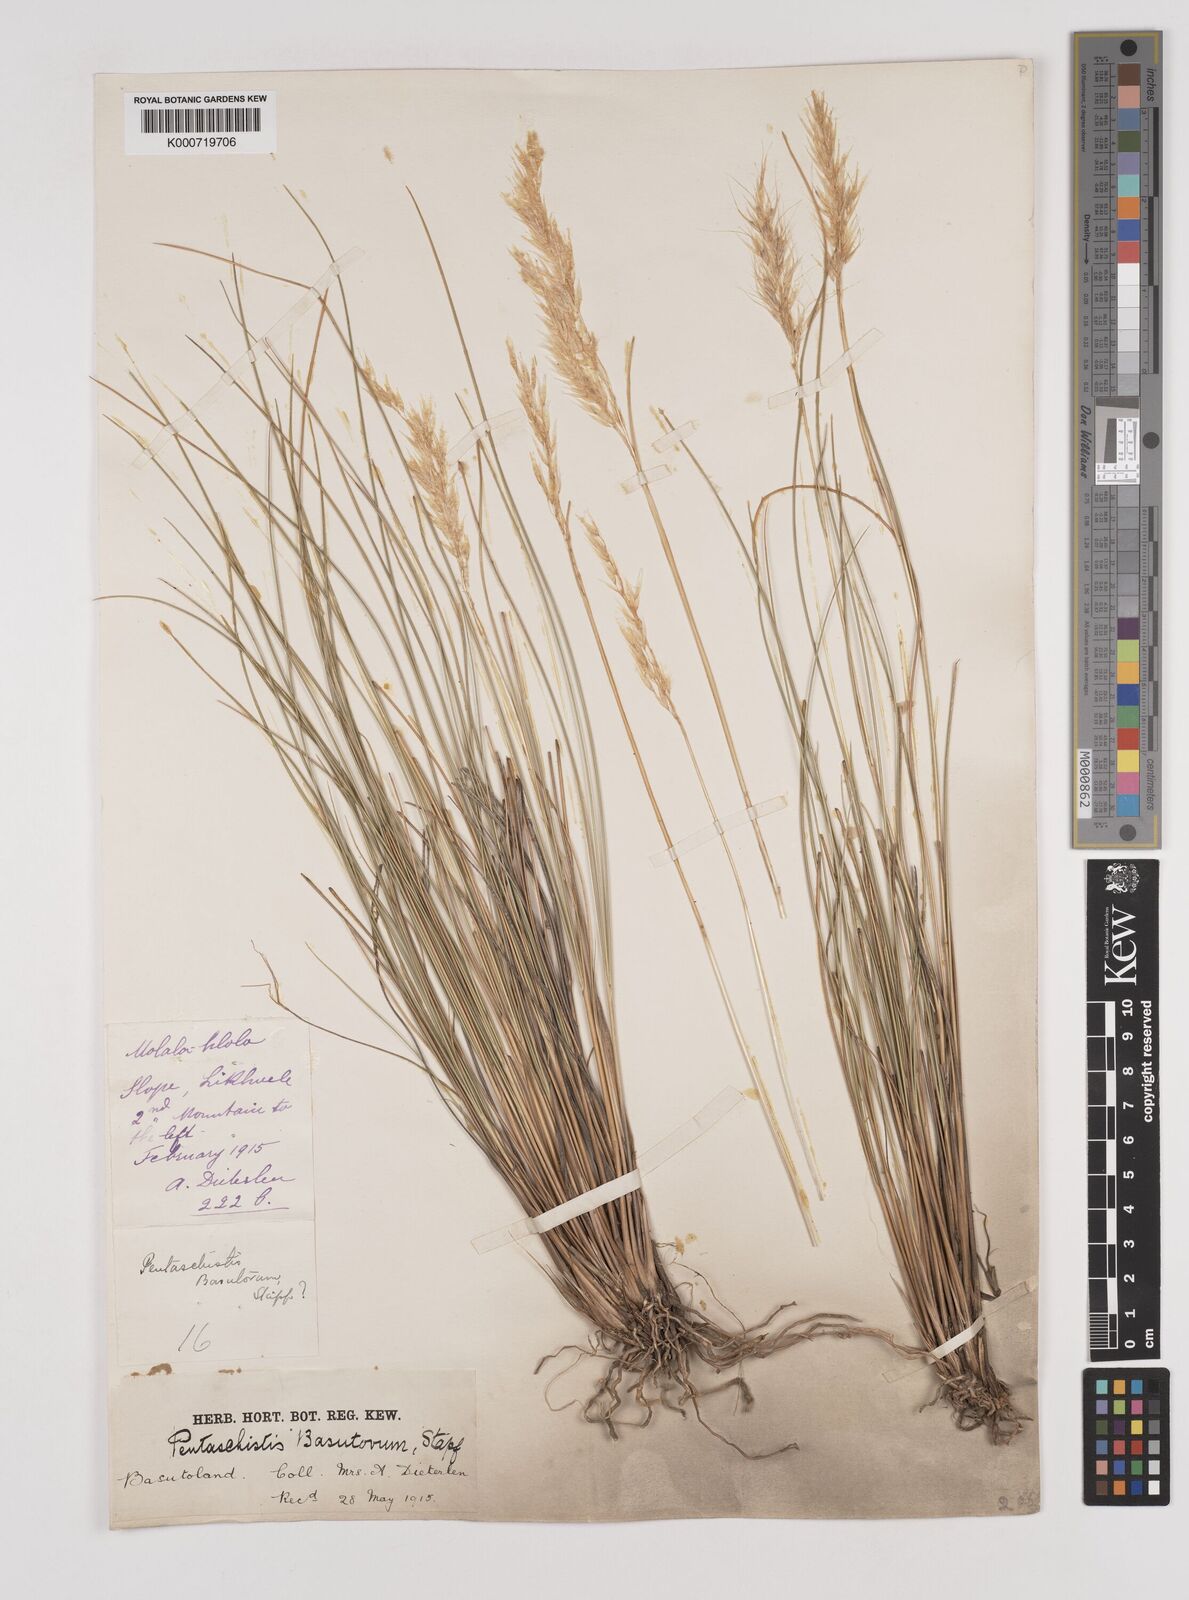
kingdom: Plantae
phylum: Tracheophyta
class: Liliopsida
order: Poales
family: Poaceae
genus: Pentameris
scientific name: Pentameris basutorum
